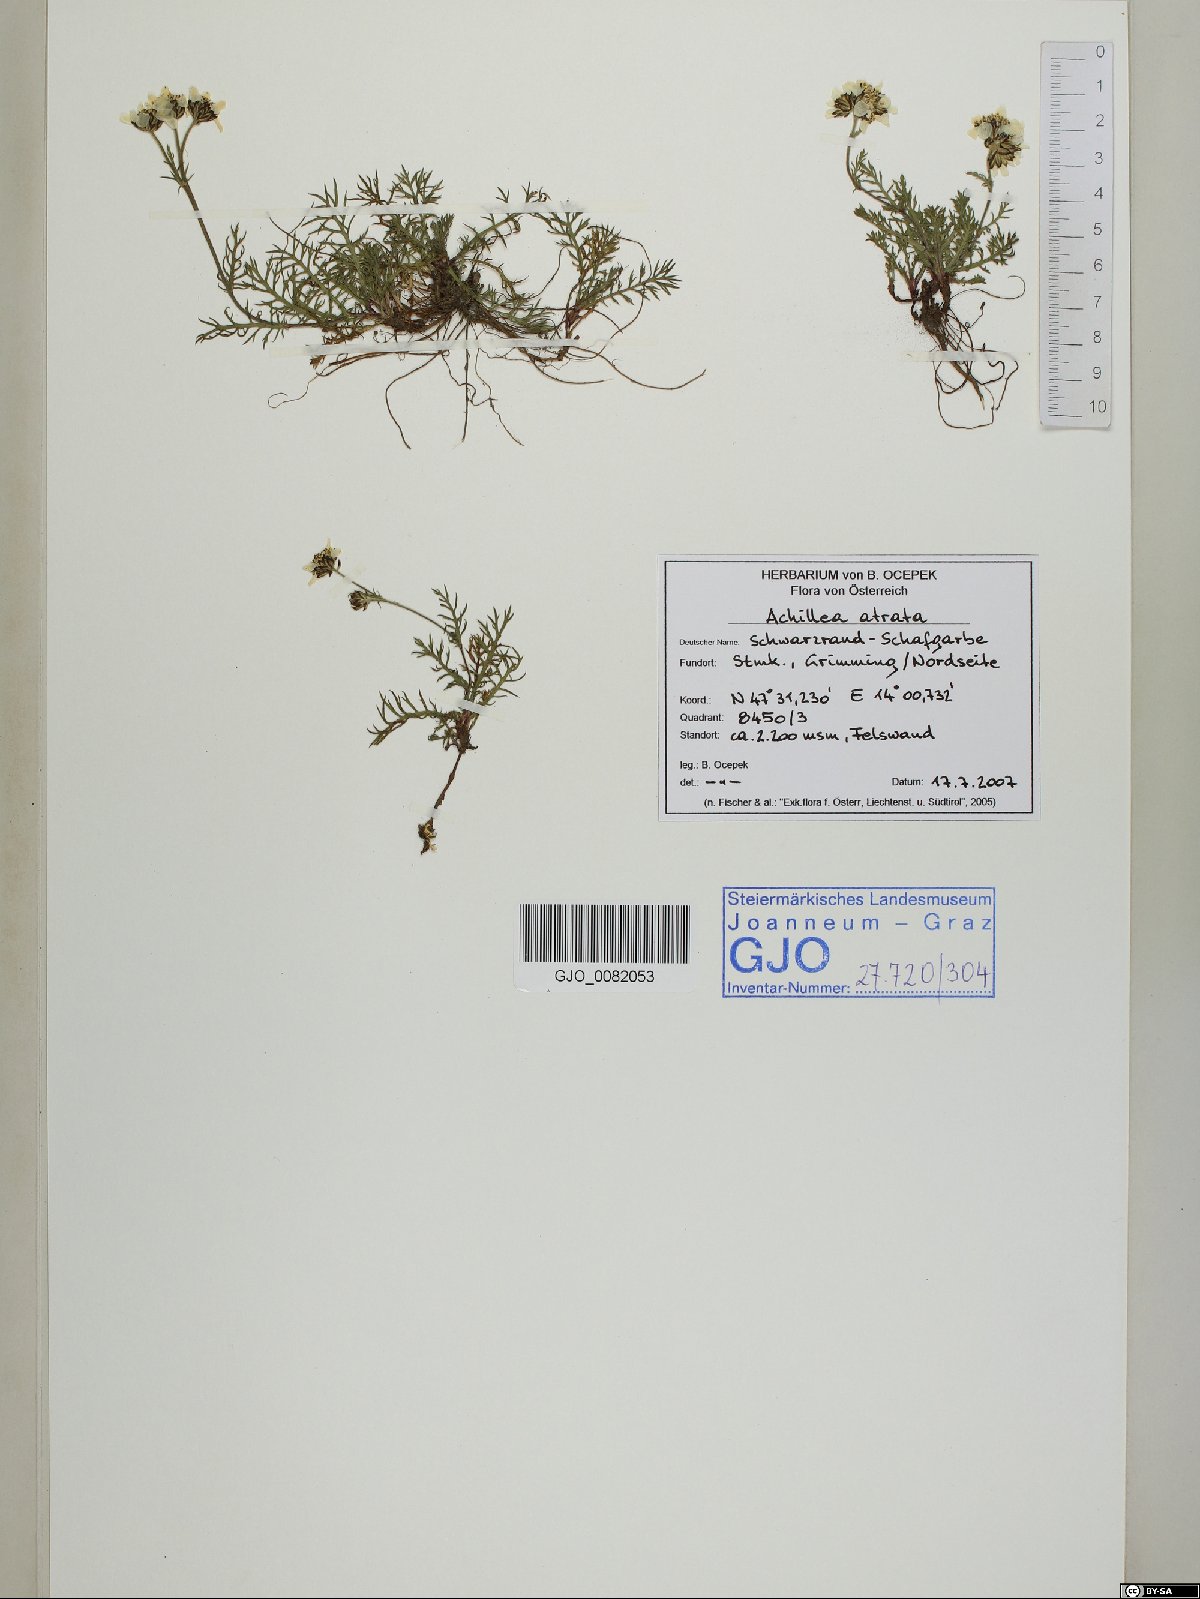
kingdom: Plantae
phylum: Tracheophyta
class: Magnoliopsida
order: Asterales
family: Asteraceae
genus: Achillea
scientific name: Achillea atrata
